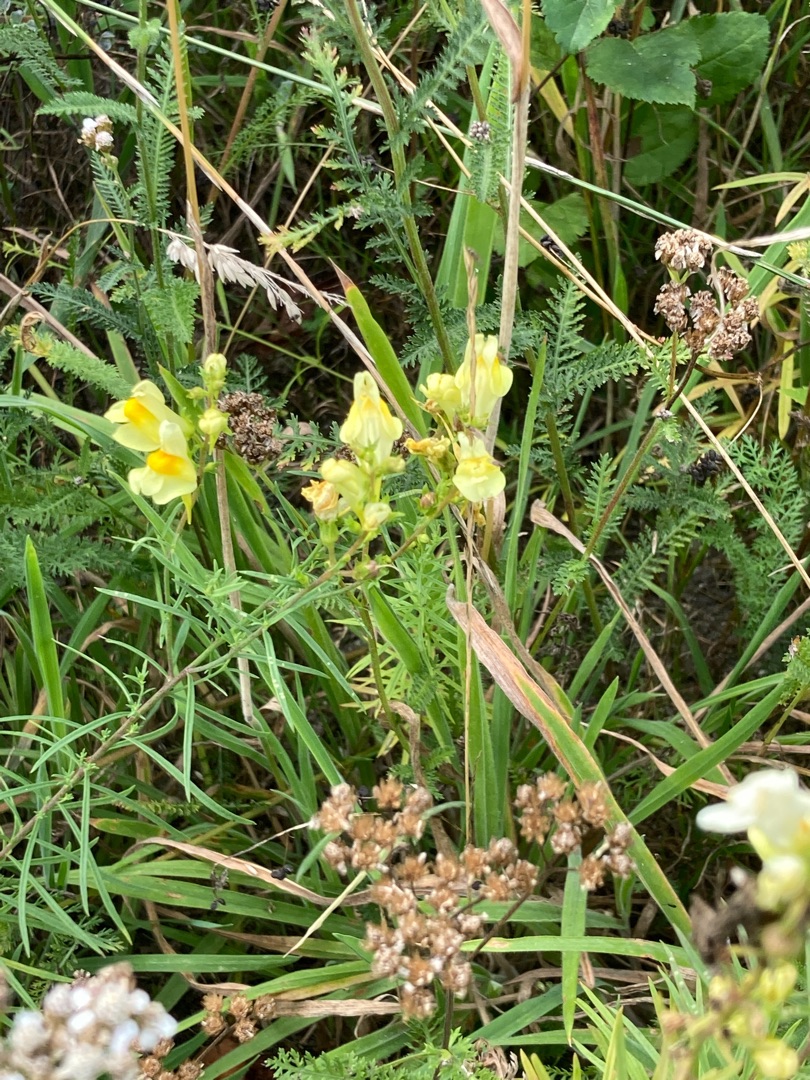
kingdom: Plantae
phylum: Tracheophyta
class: Magnoliopsida
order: Lamiales
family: Plantaginaceae
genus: Linaria
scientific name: Linaria vulgaris
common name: Almindelig torskemund
